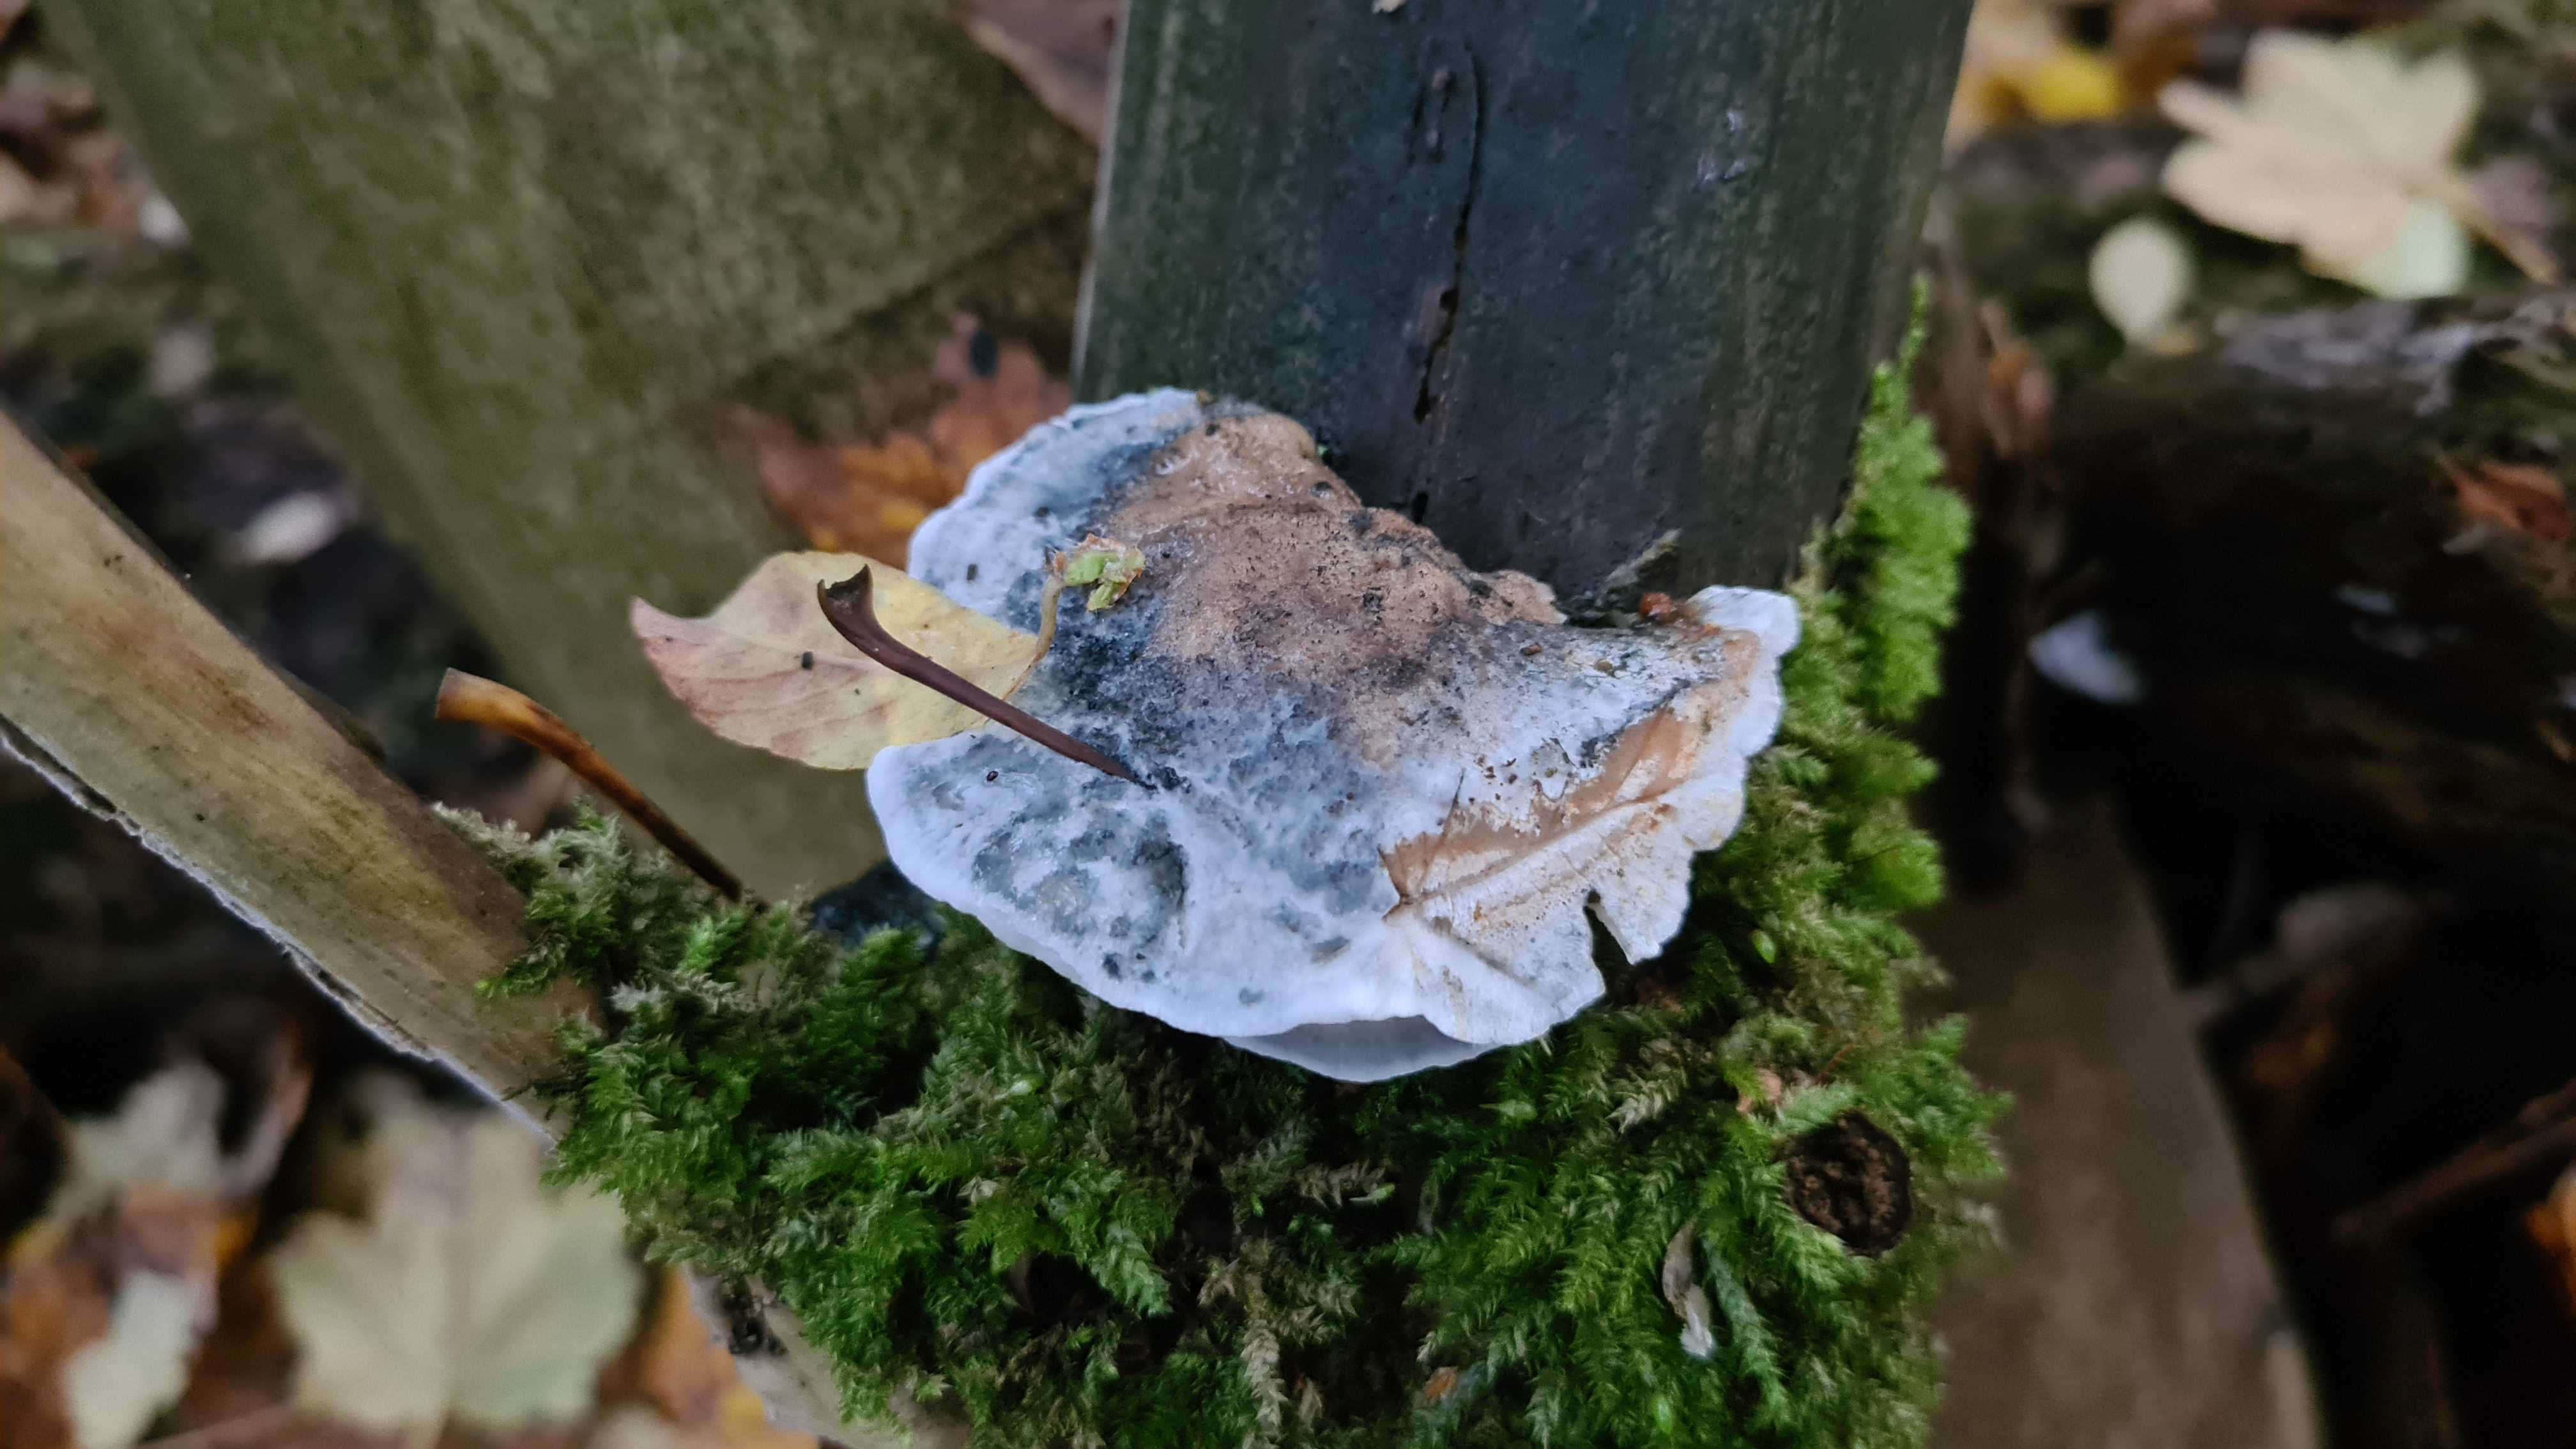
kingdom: Fungi
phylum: Basidiomycota
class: Agaricomycetes
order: Polyporales
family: Dacryobolaceae
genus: Postia
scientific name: Postia
